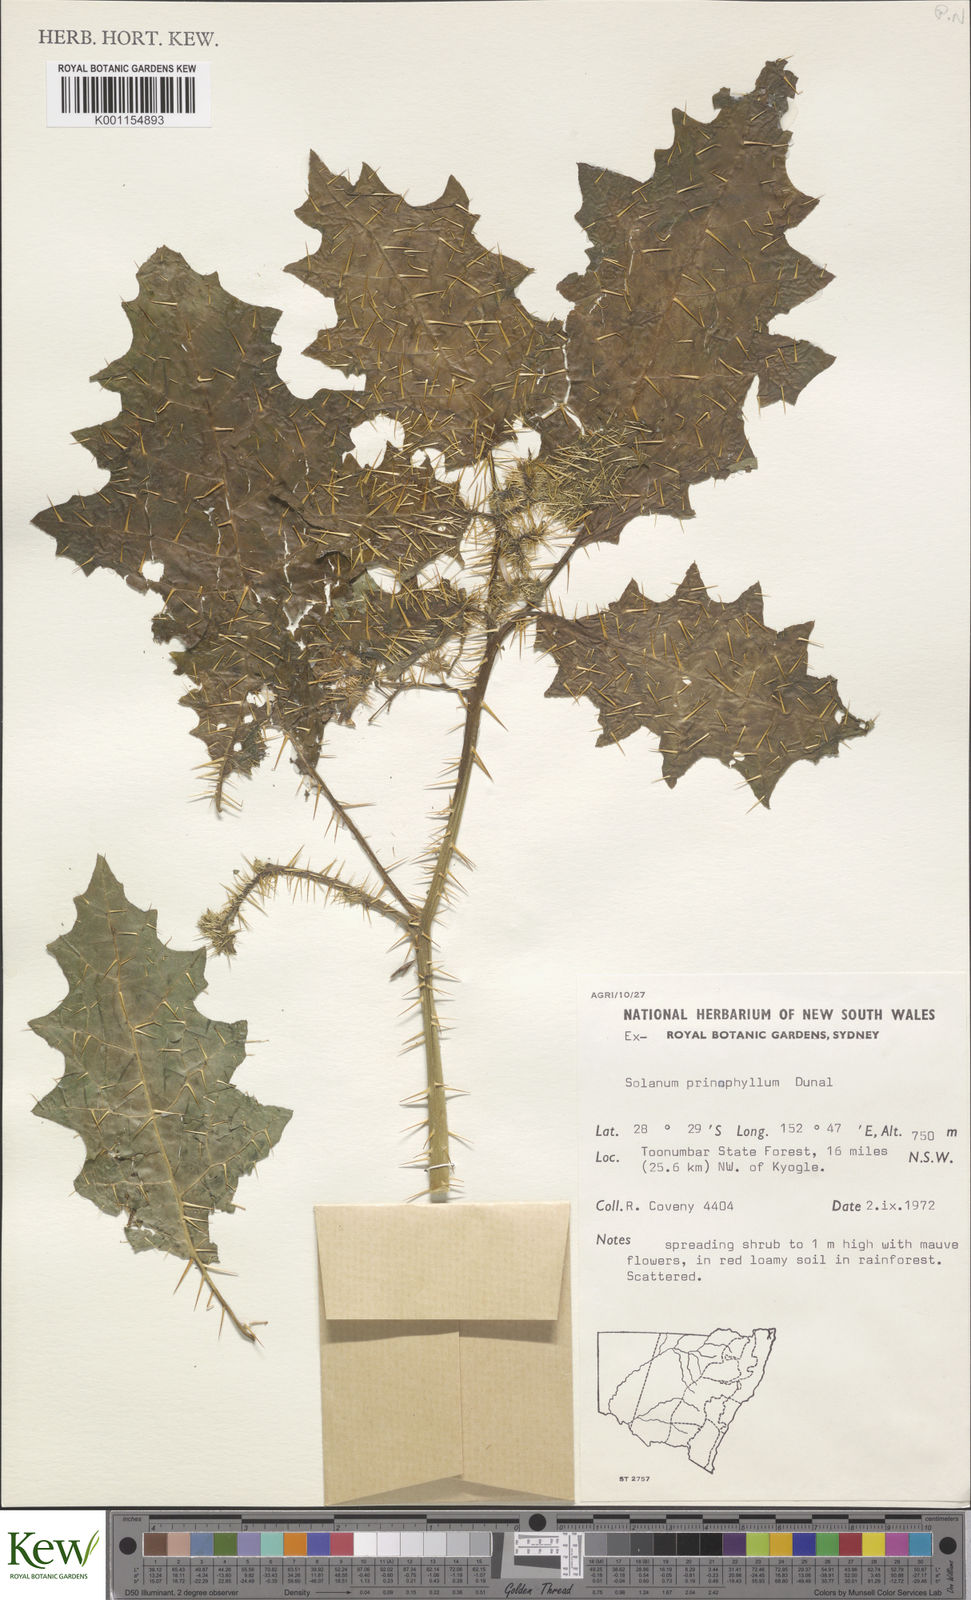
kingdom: Plantae
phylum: Tracheophyta
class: Magnoliopsida
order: Solanales
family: Solanaceae
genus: Solanum
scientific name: Solanum prinophyllum
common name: Forest nightshade
